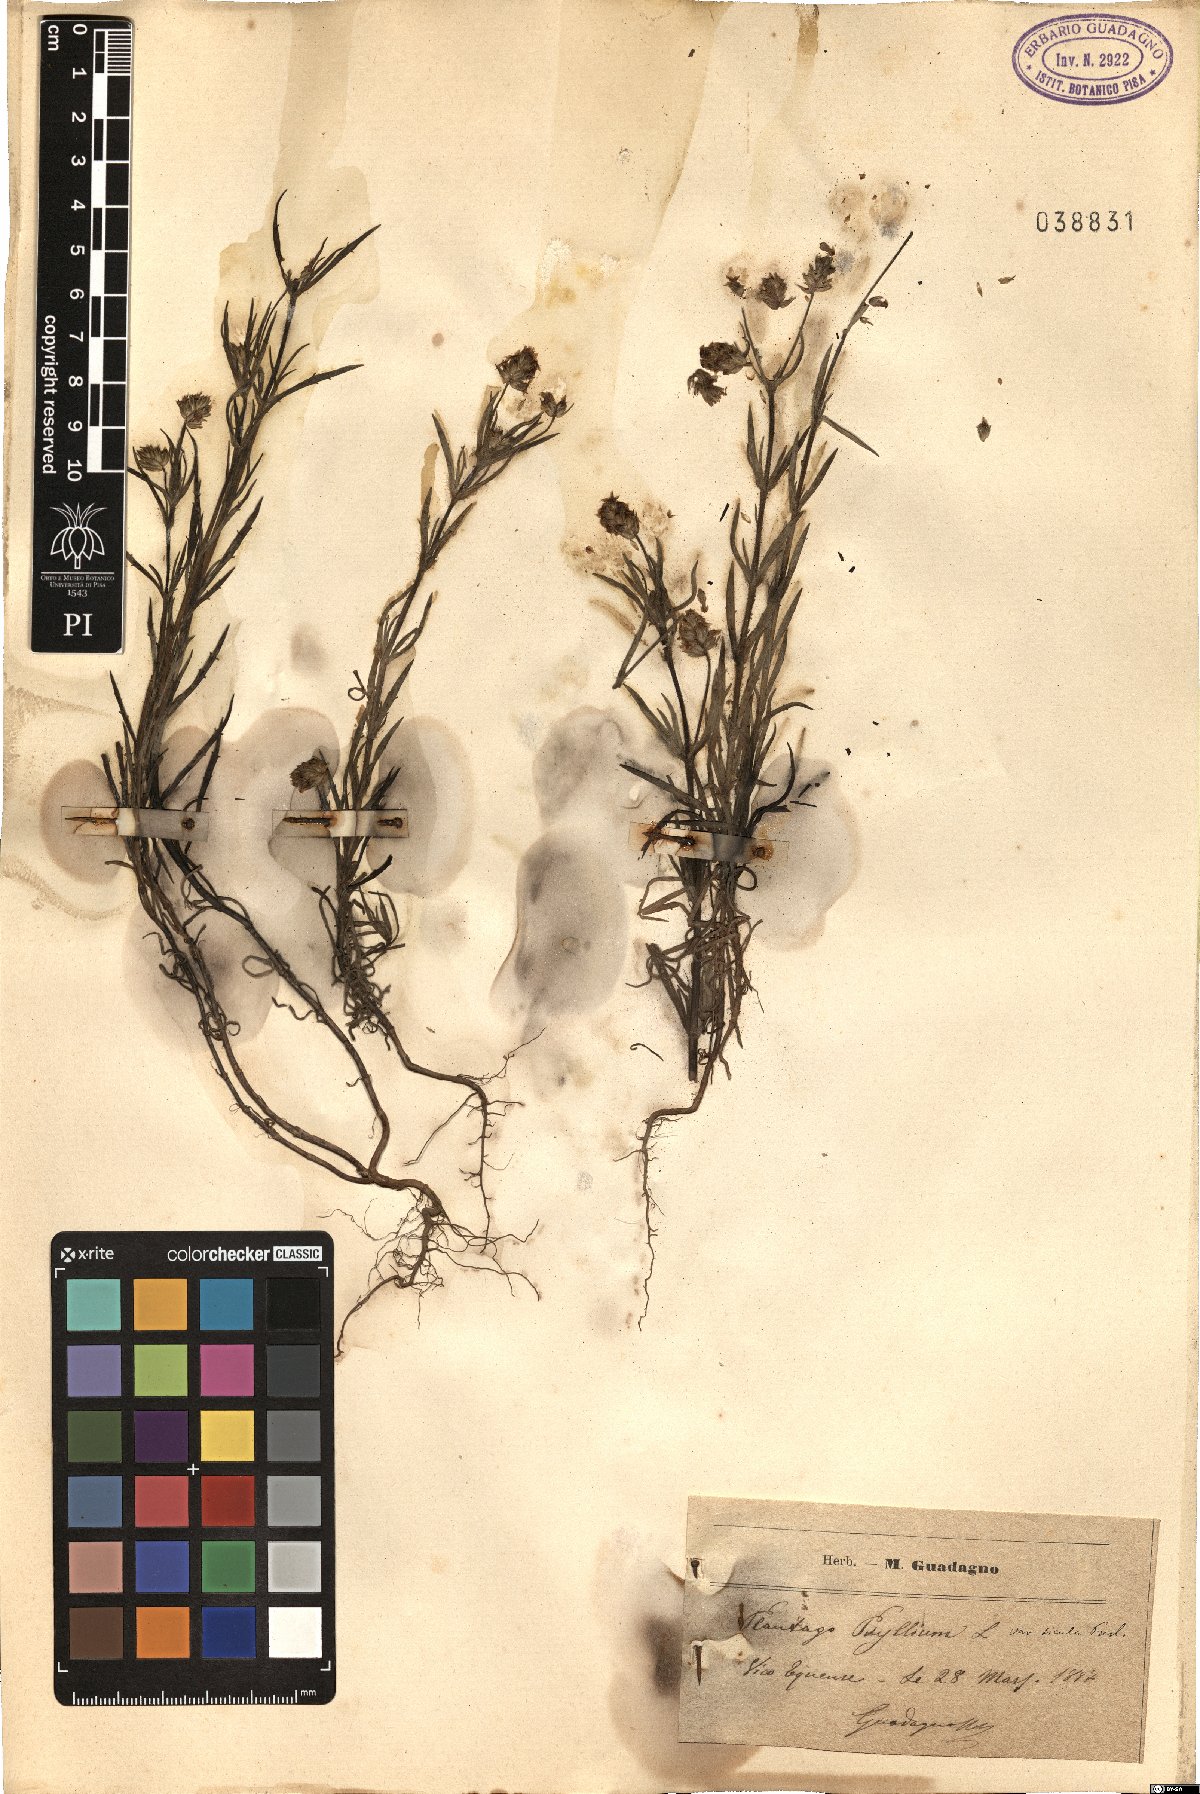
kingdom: Plantae
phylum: Tracheophyta
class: Magnoliopsida
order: Lamiales
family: Plantaginaceae
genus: Plantago
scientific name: Plantago afra
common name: Glandular plantain
